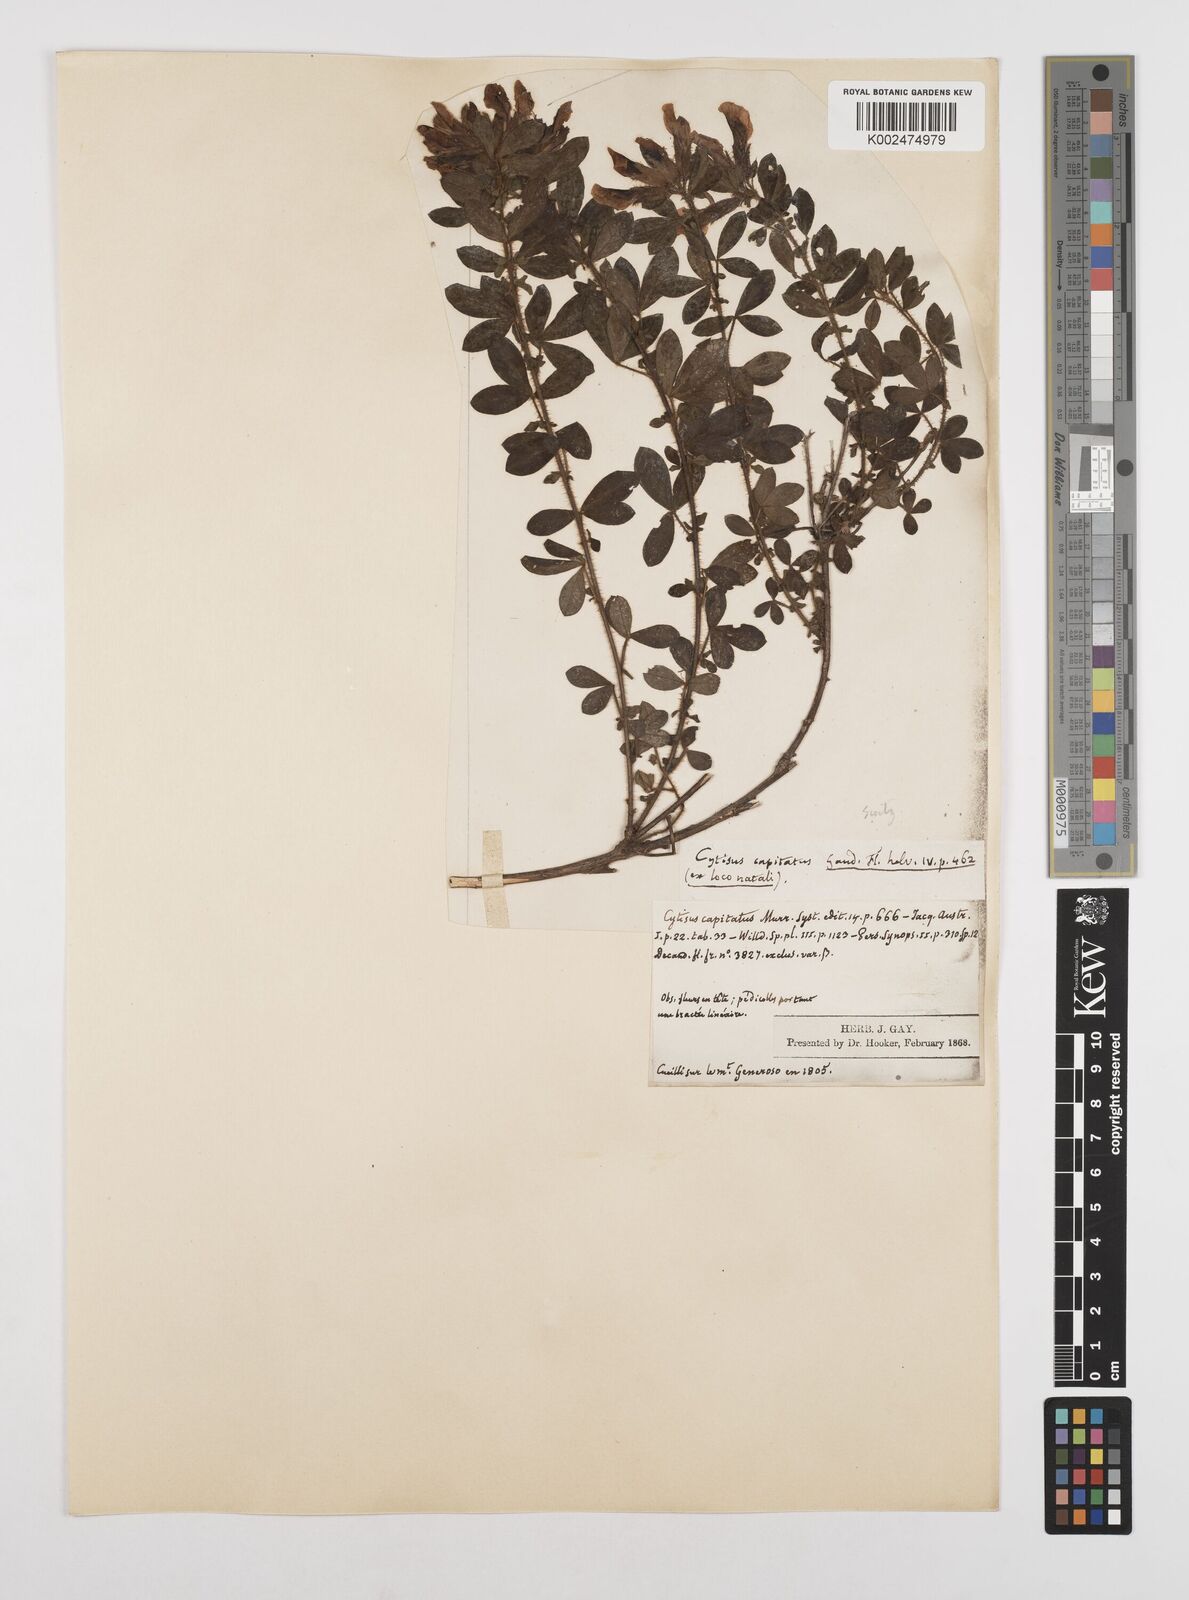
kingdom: Plantae
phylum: Tracheophyta
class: Magnoliopsida
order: Fabales
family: Fabaceae
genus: Chamaecytisus
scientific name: Chamaecytisus hirsutus
